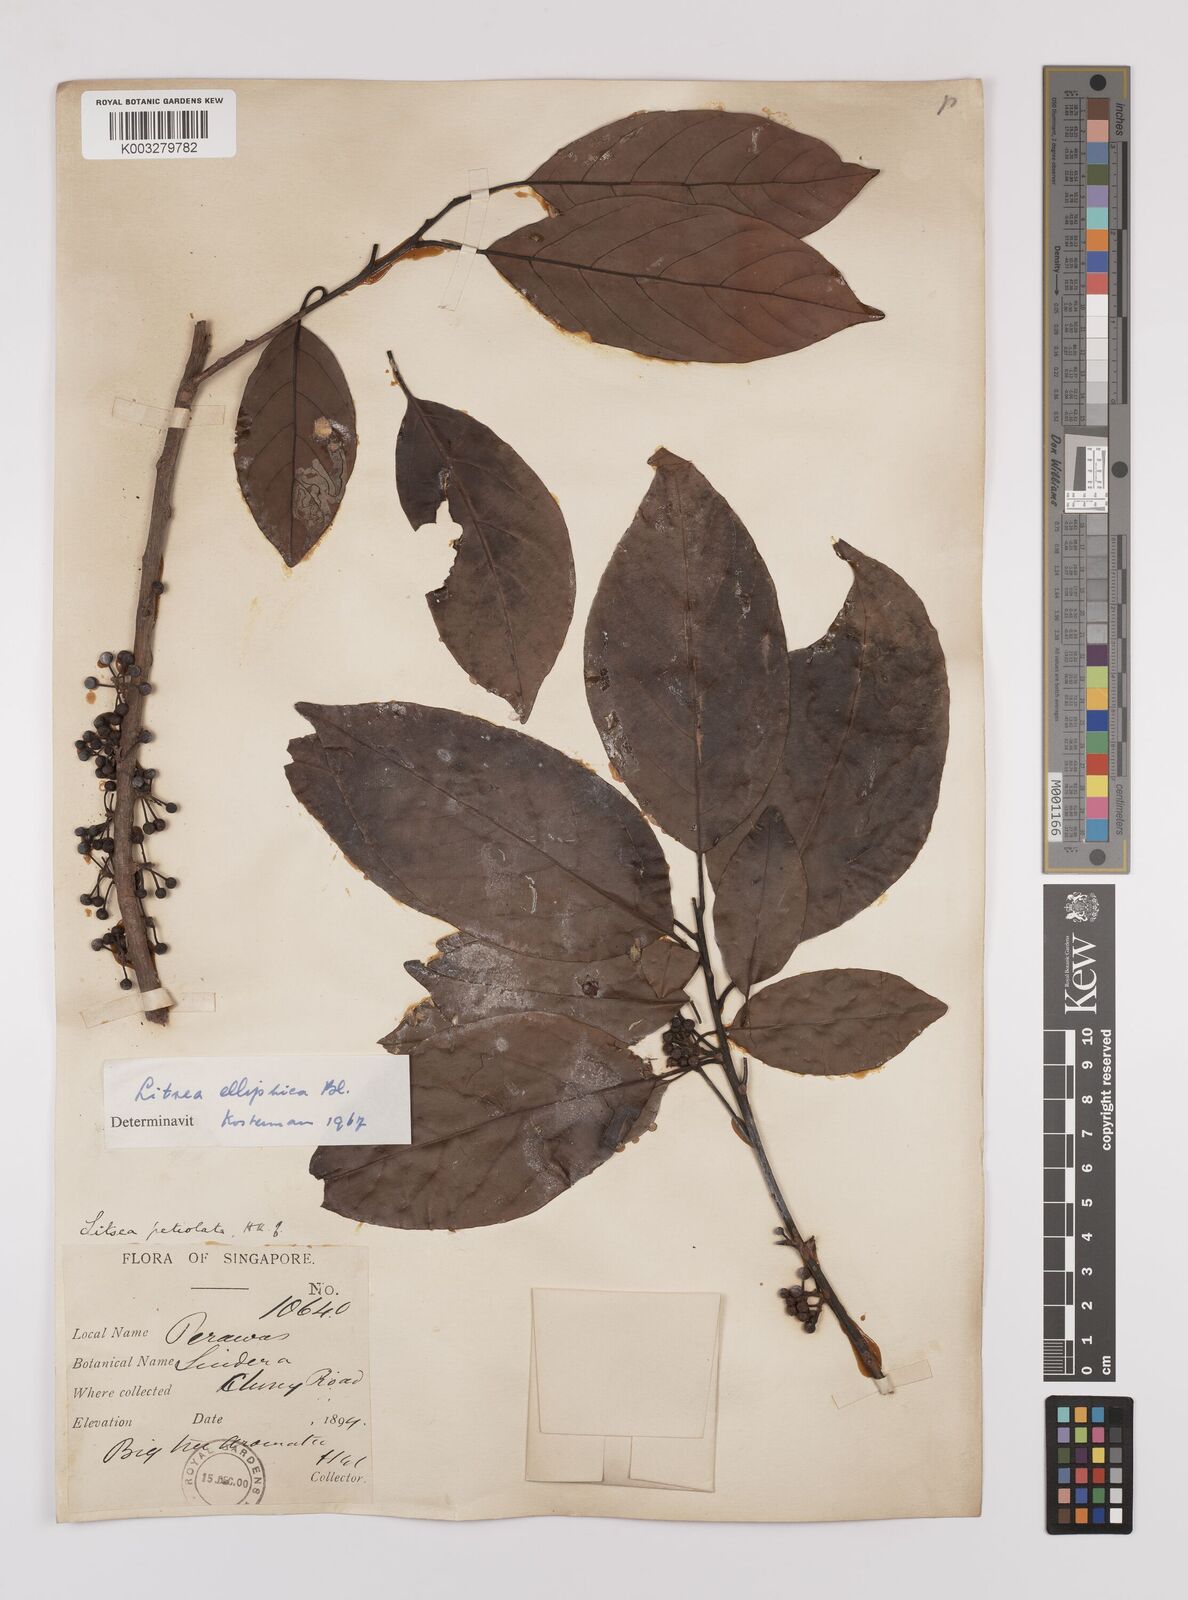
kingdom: Plantae
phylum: Tracheophyta
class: Magnoliopsida
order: Laurales
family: Lauraceae
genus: Litsea
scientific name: Litsea elliptica
